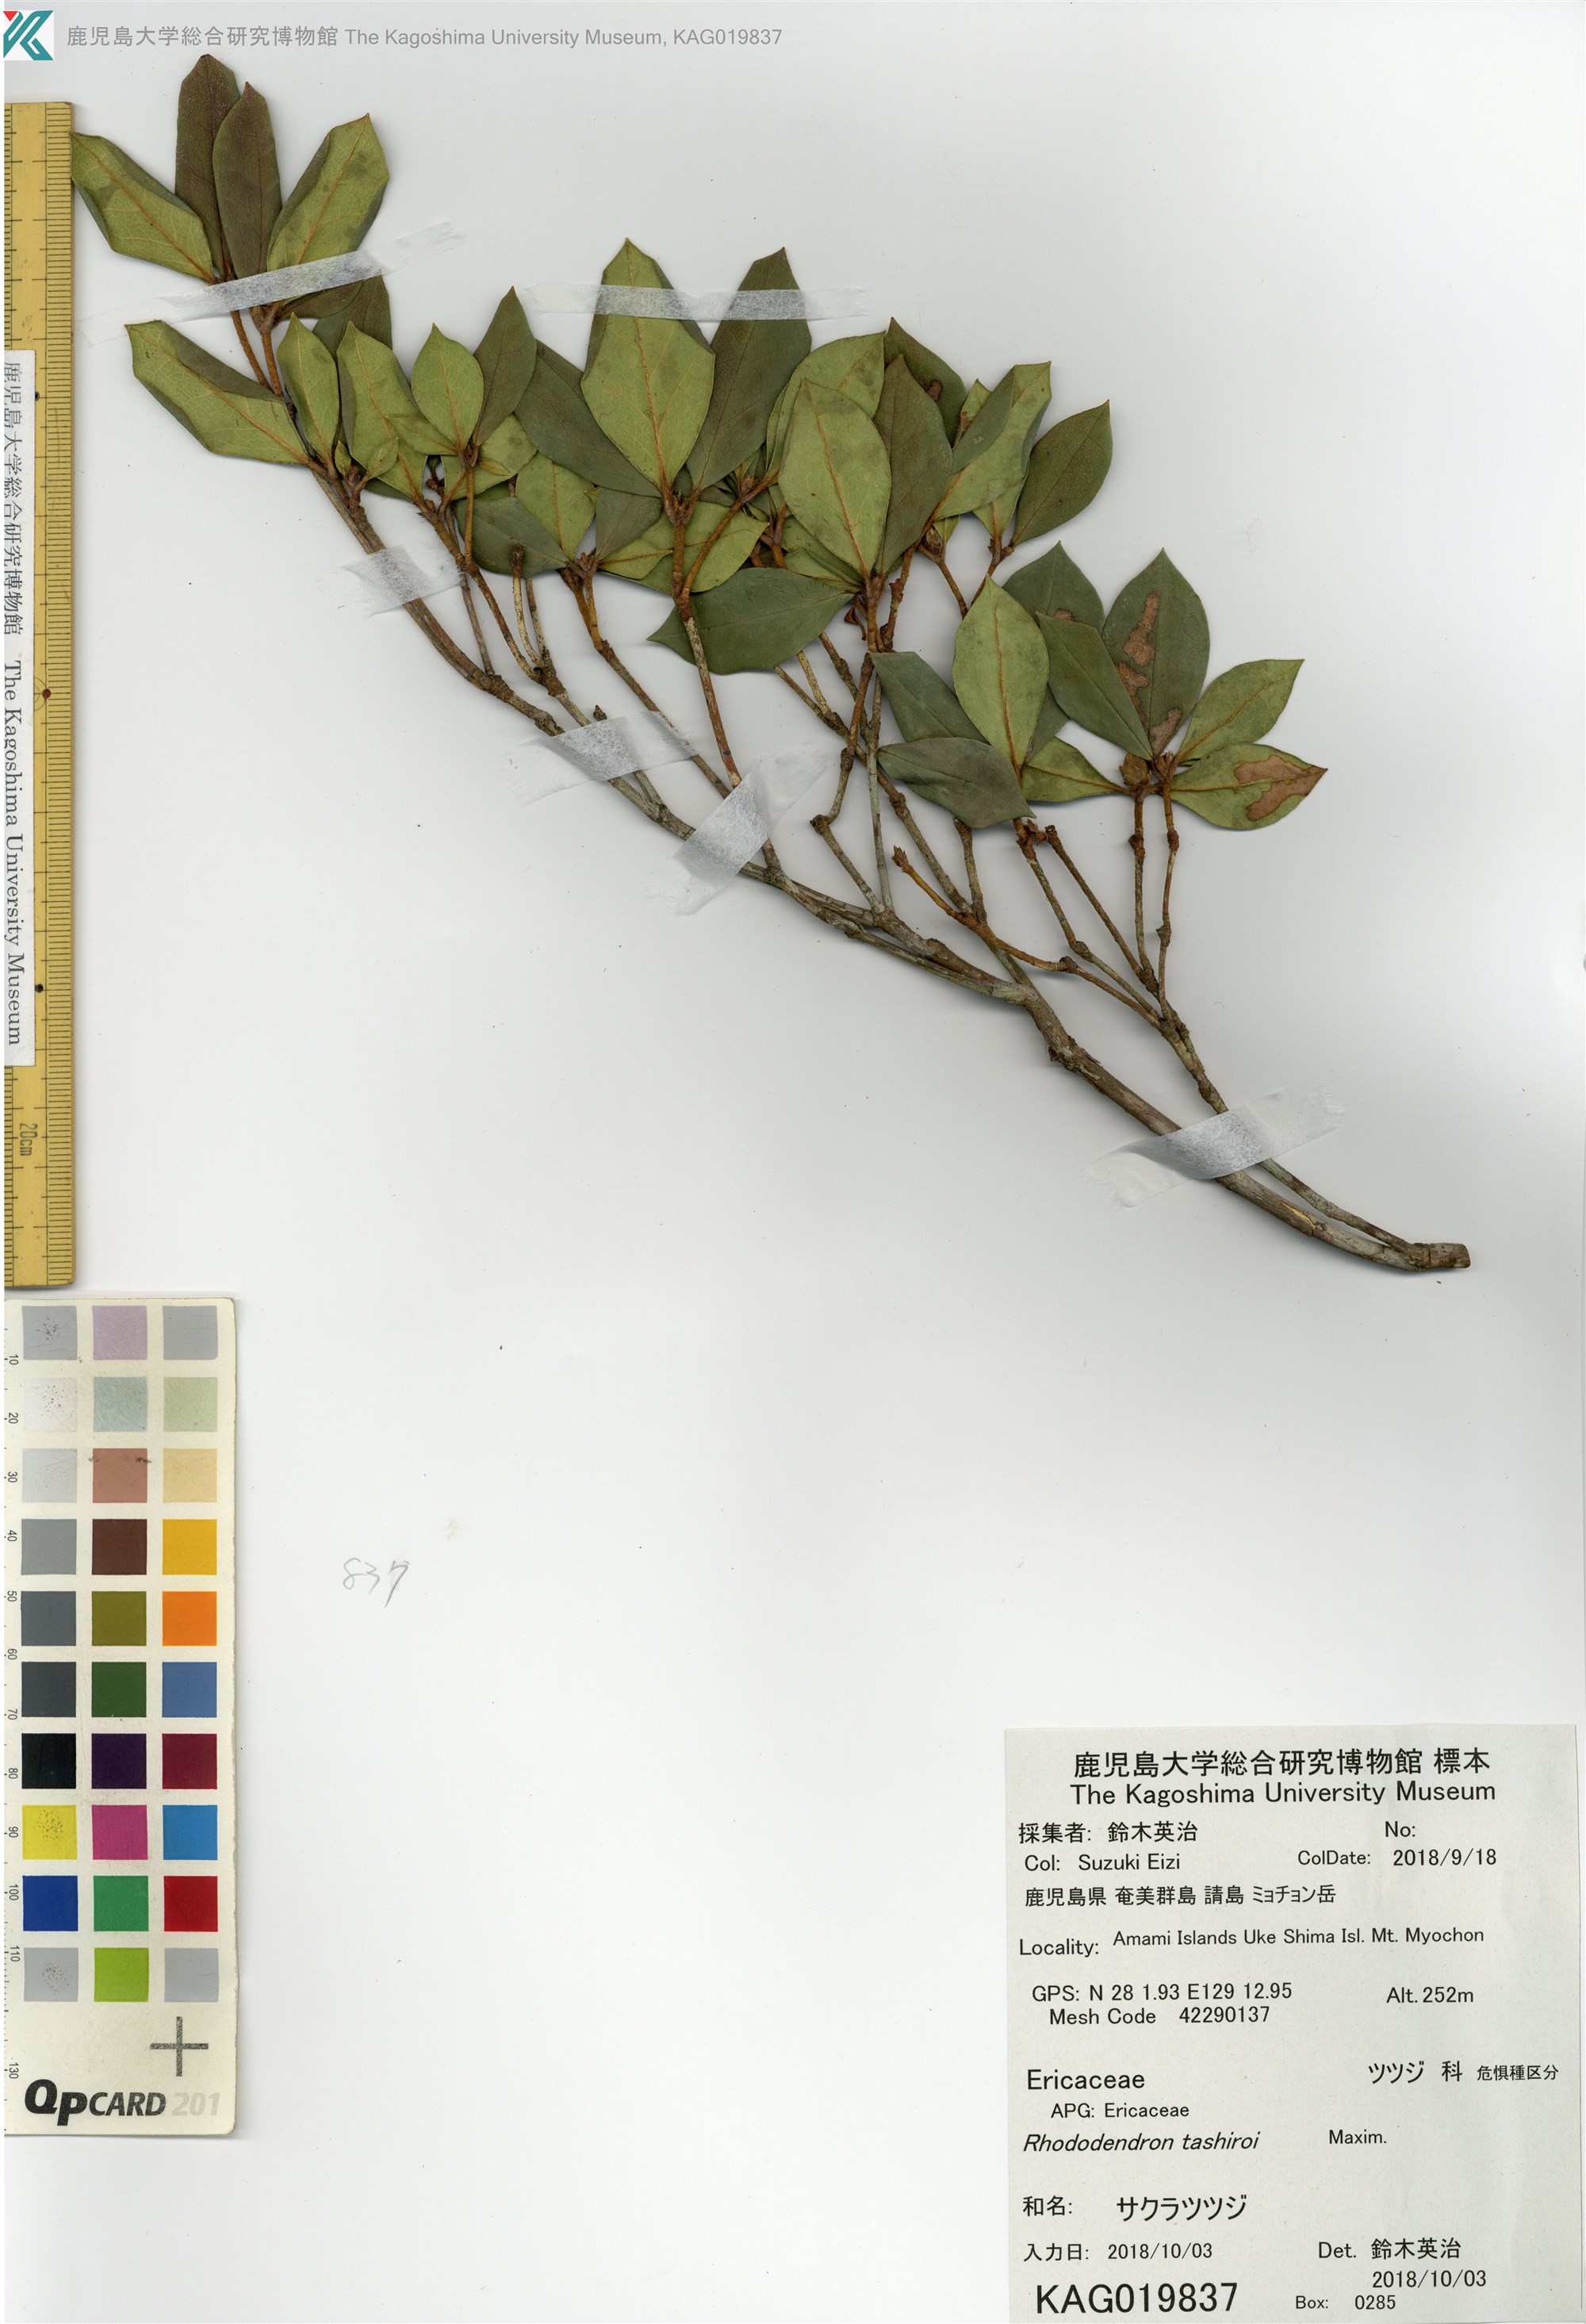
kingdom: Plantae
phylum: Tracheophyta
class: Magnoliopsida
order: Ericales
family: Ericaceae
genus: Rhododendron
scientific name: Rhododendron tashiroi
